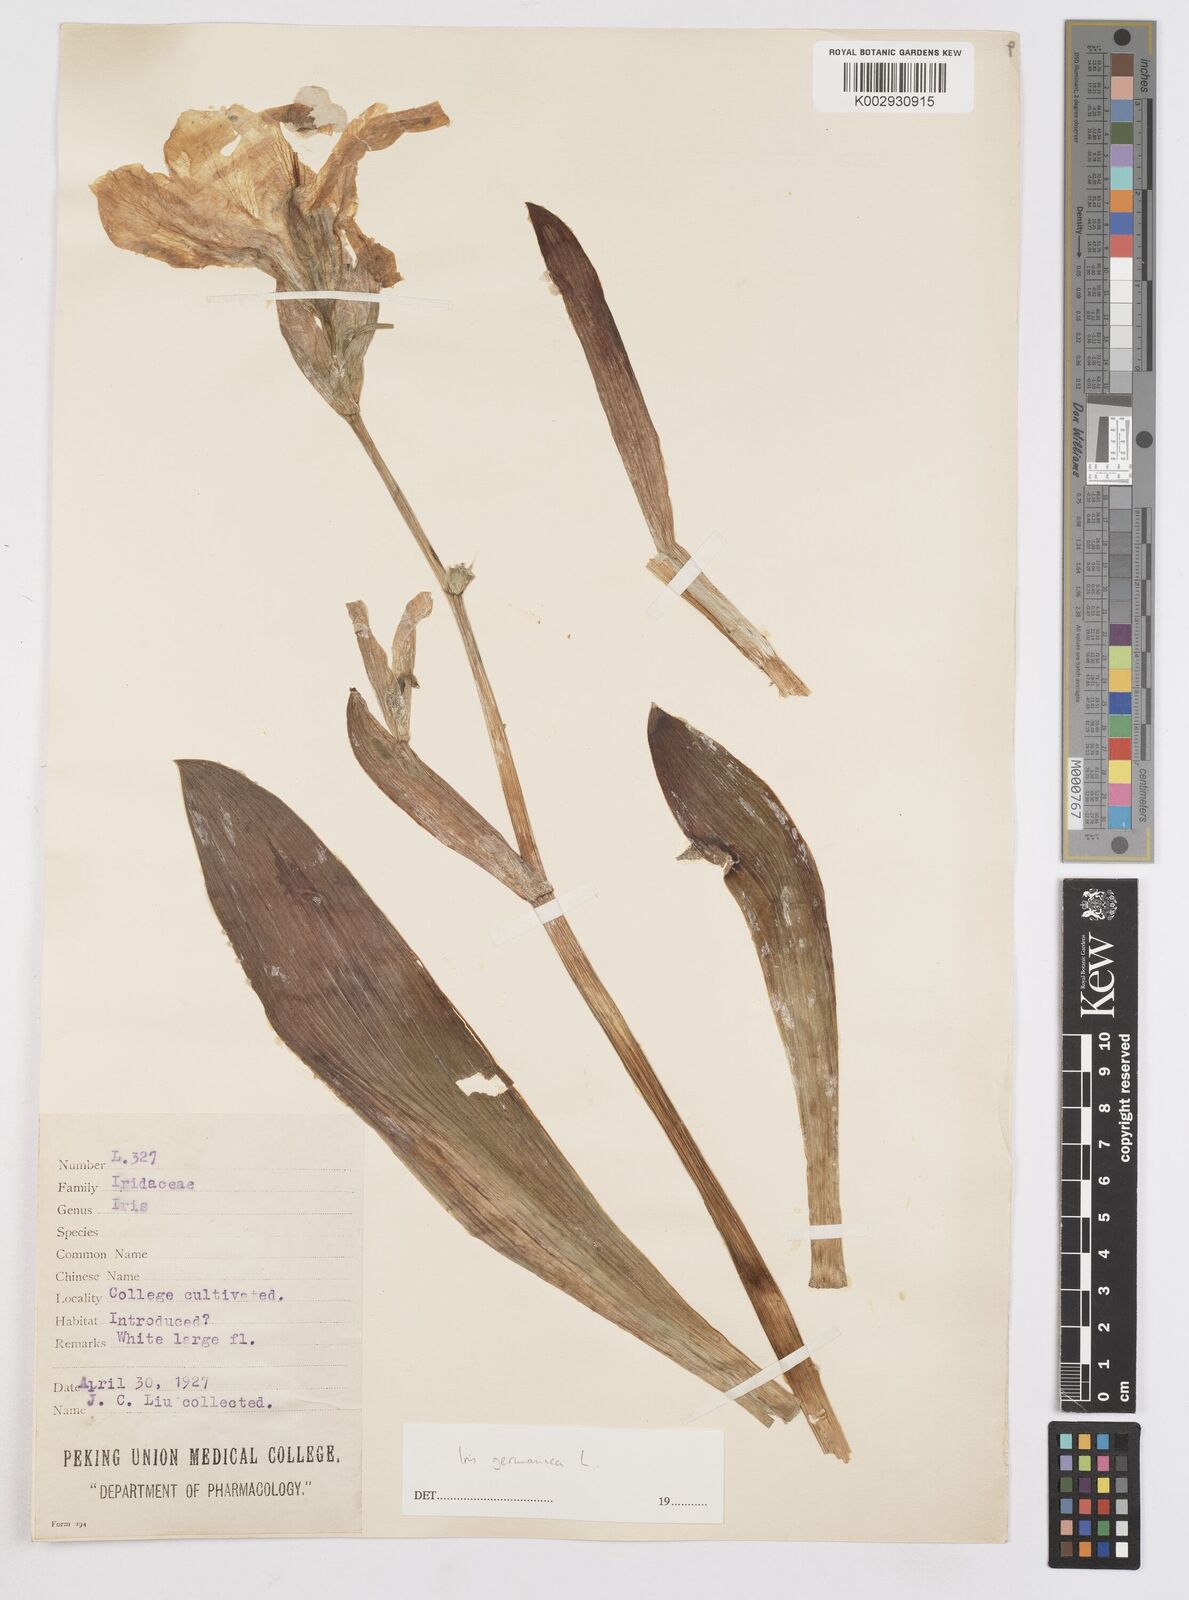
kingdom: Plantae
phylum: Tracheophyta
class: Liliopsida
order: Asparagales
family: Iridaceae
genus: Iris
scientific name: Iris germanica
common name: German iris
